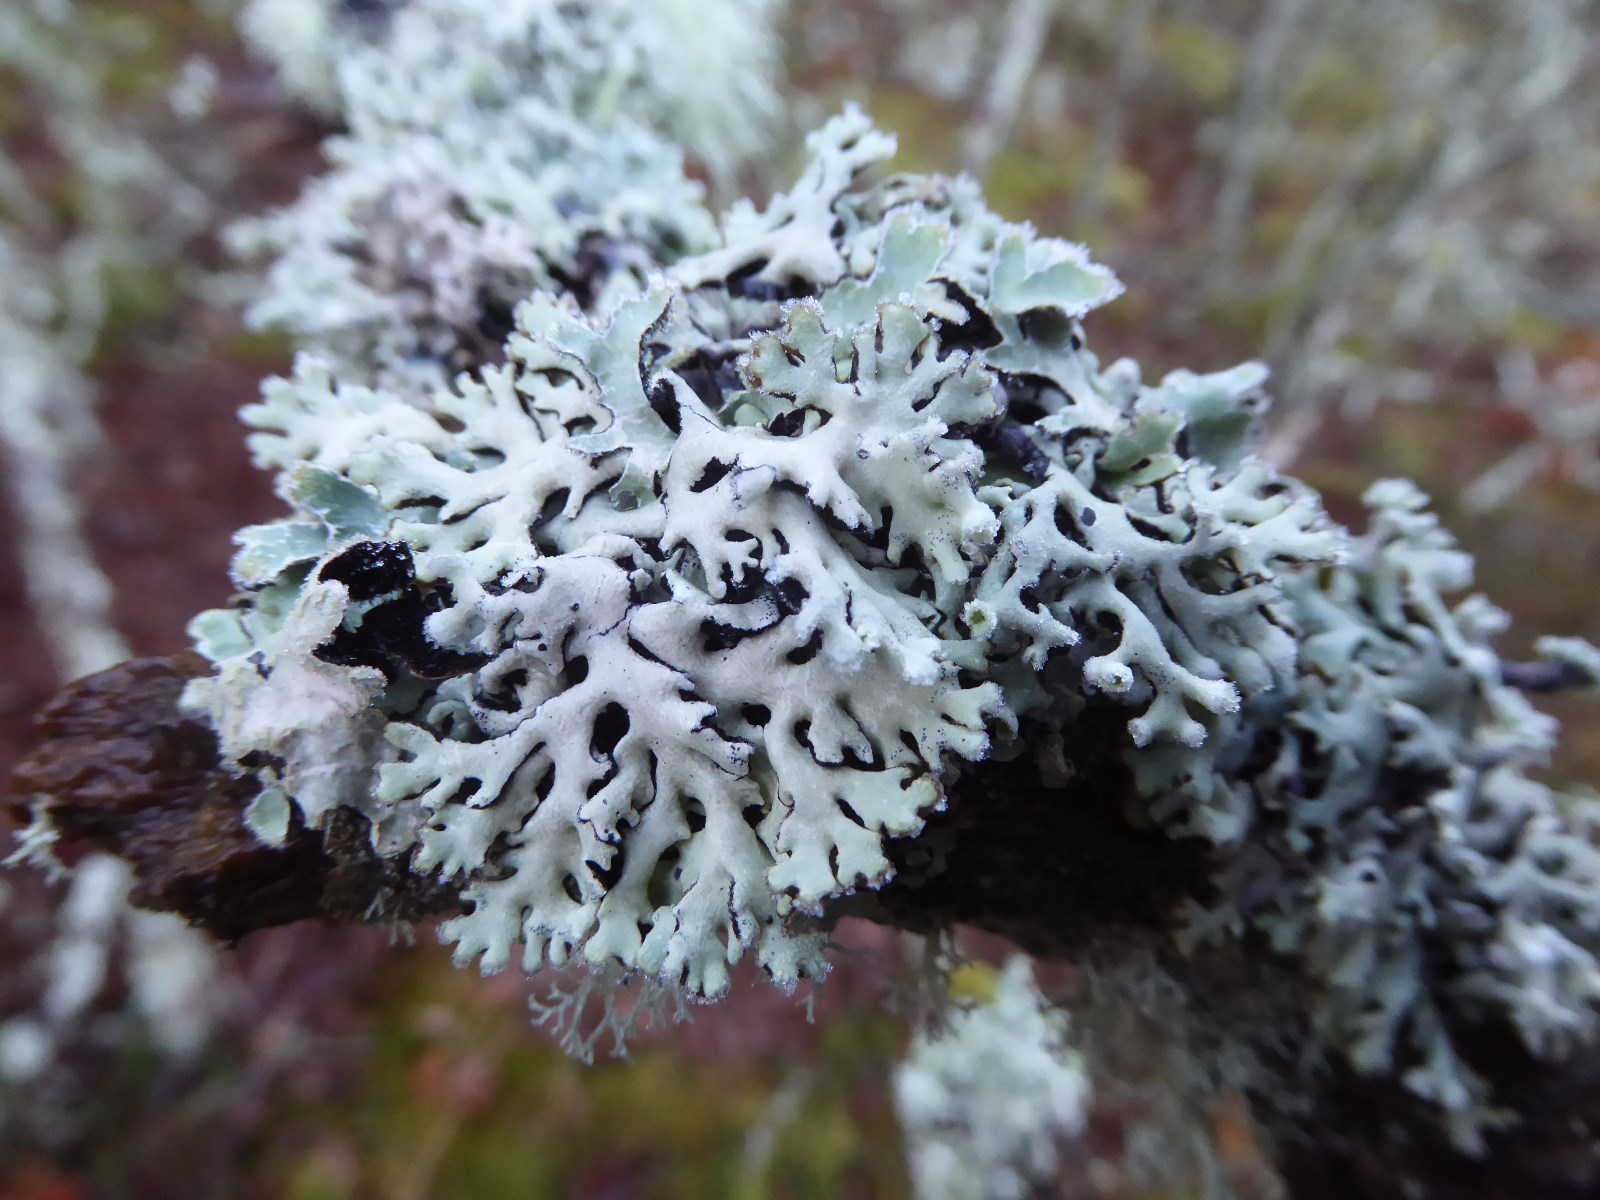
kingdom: Fungi
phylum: Ascomycota
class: Lecanoromycetes
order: Lecanorales
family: Parmeliaceae
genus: Hypogymnia
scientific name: Hypogymnia physodes
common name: almindelig kvistlav
